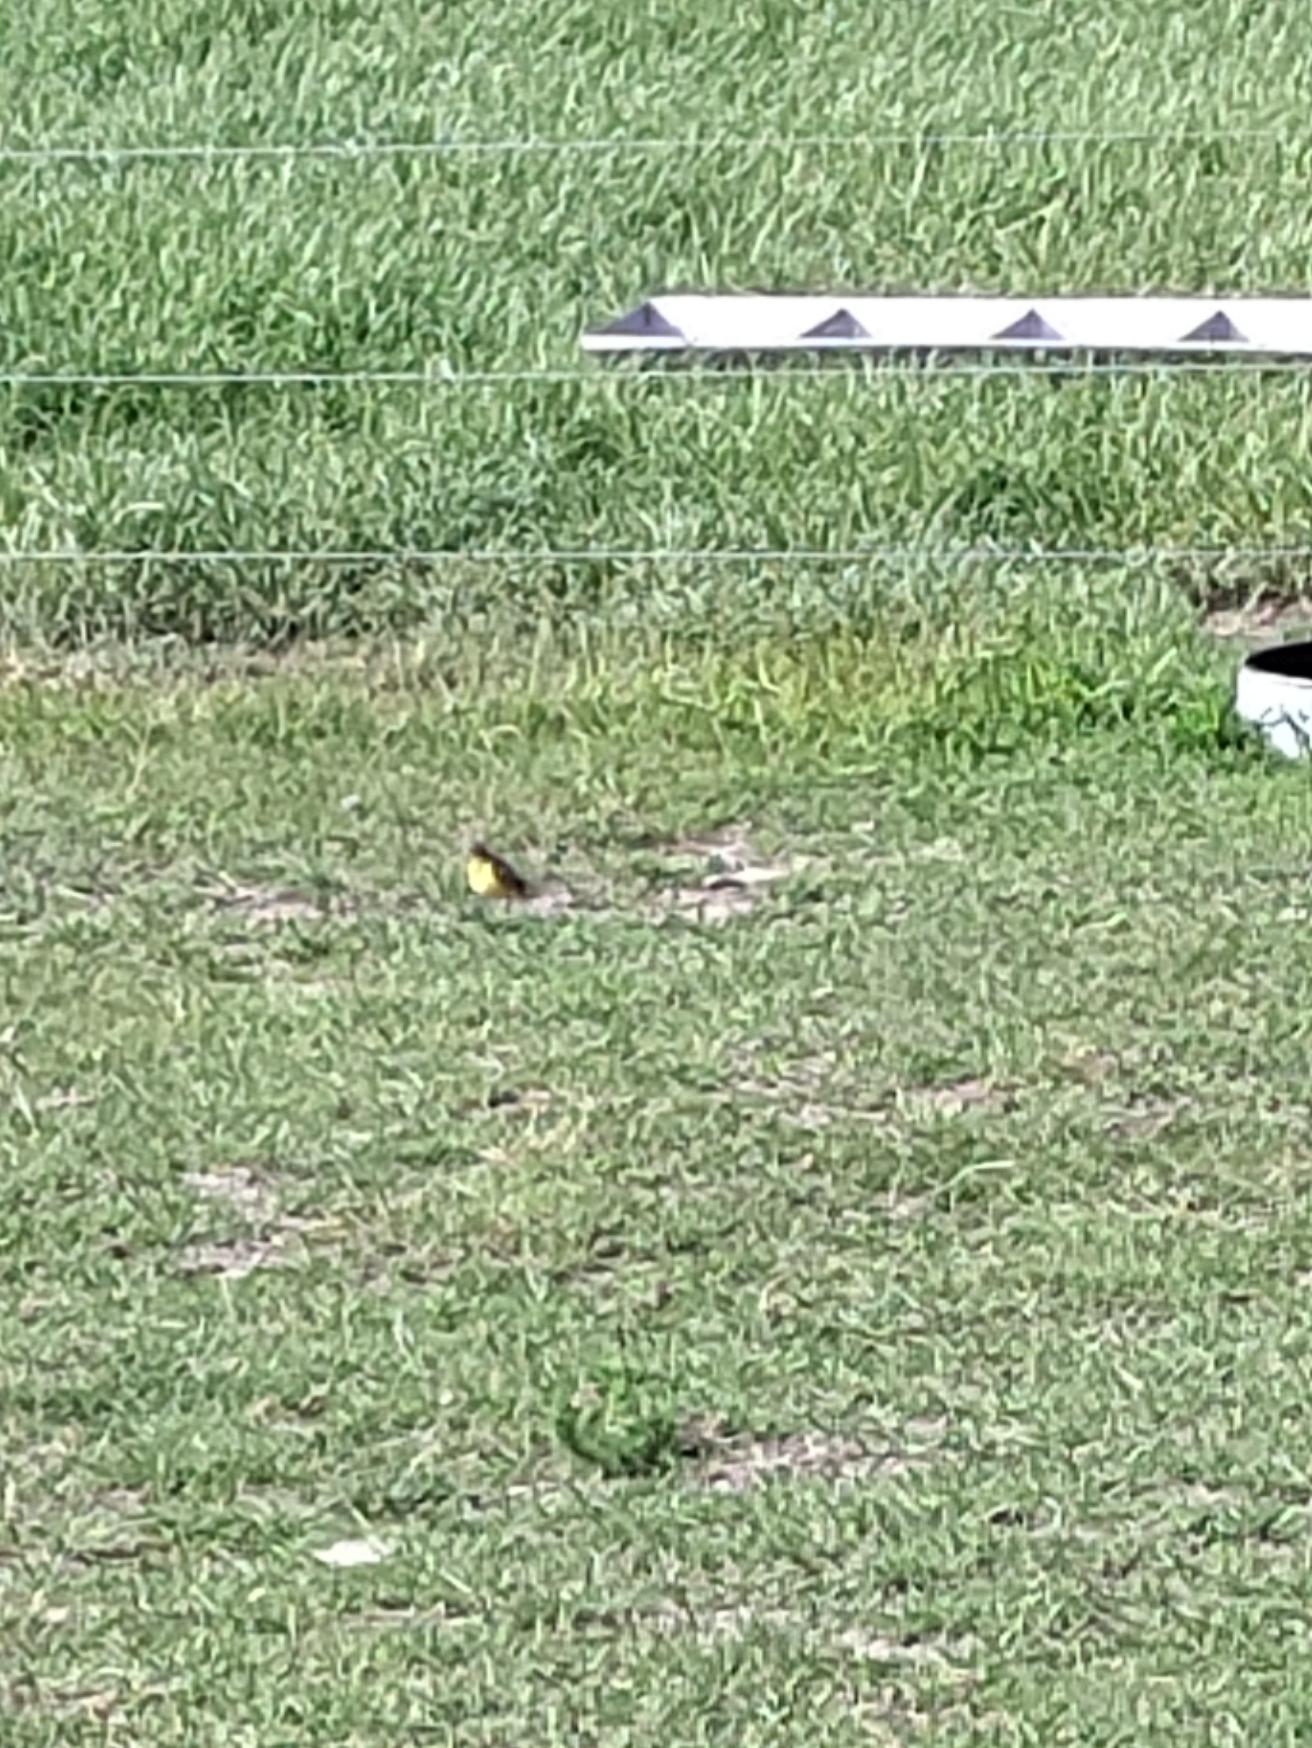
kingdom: Animalia
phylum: Chordata
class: Aves
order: Passeriformes
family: Motacillidae
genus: Motacilla
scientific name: Motacilla flava
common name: Gul vipstjert
